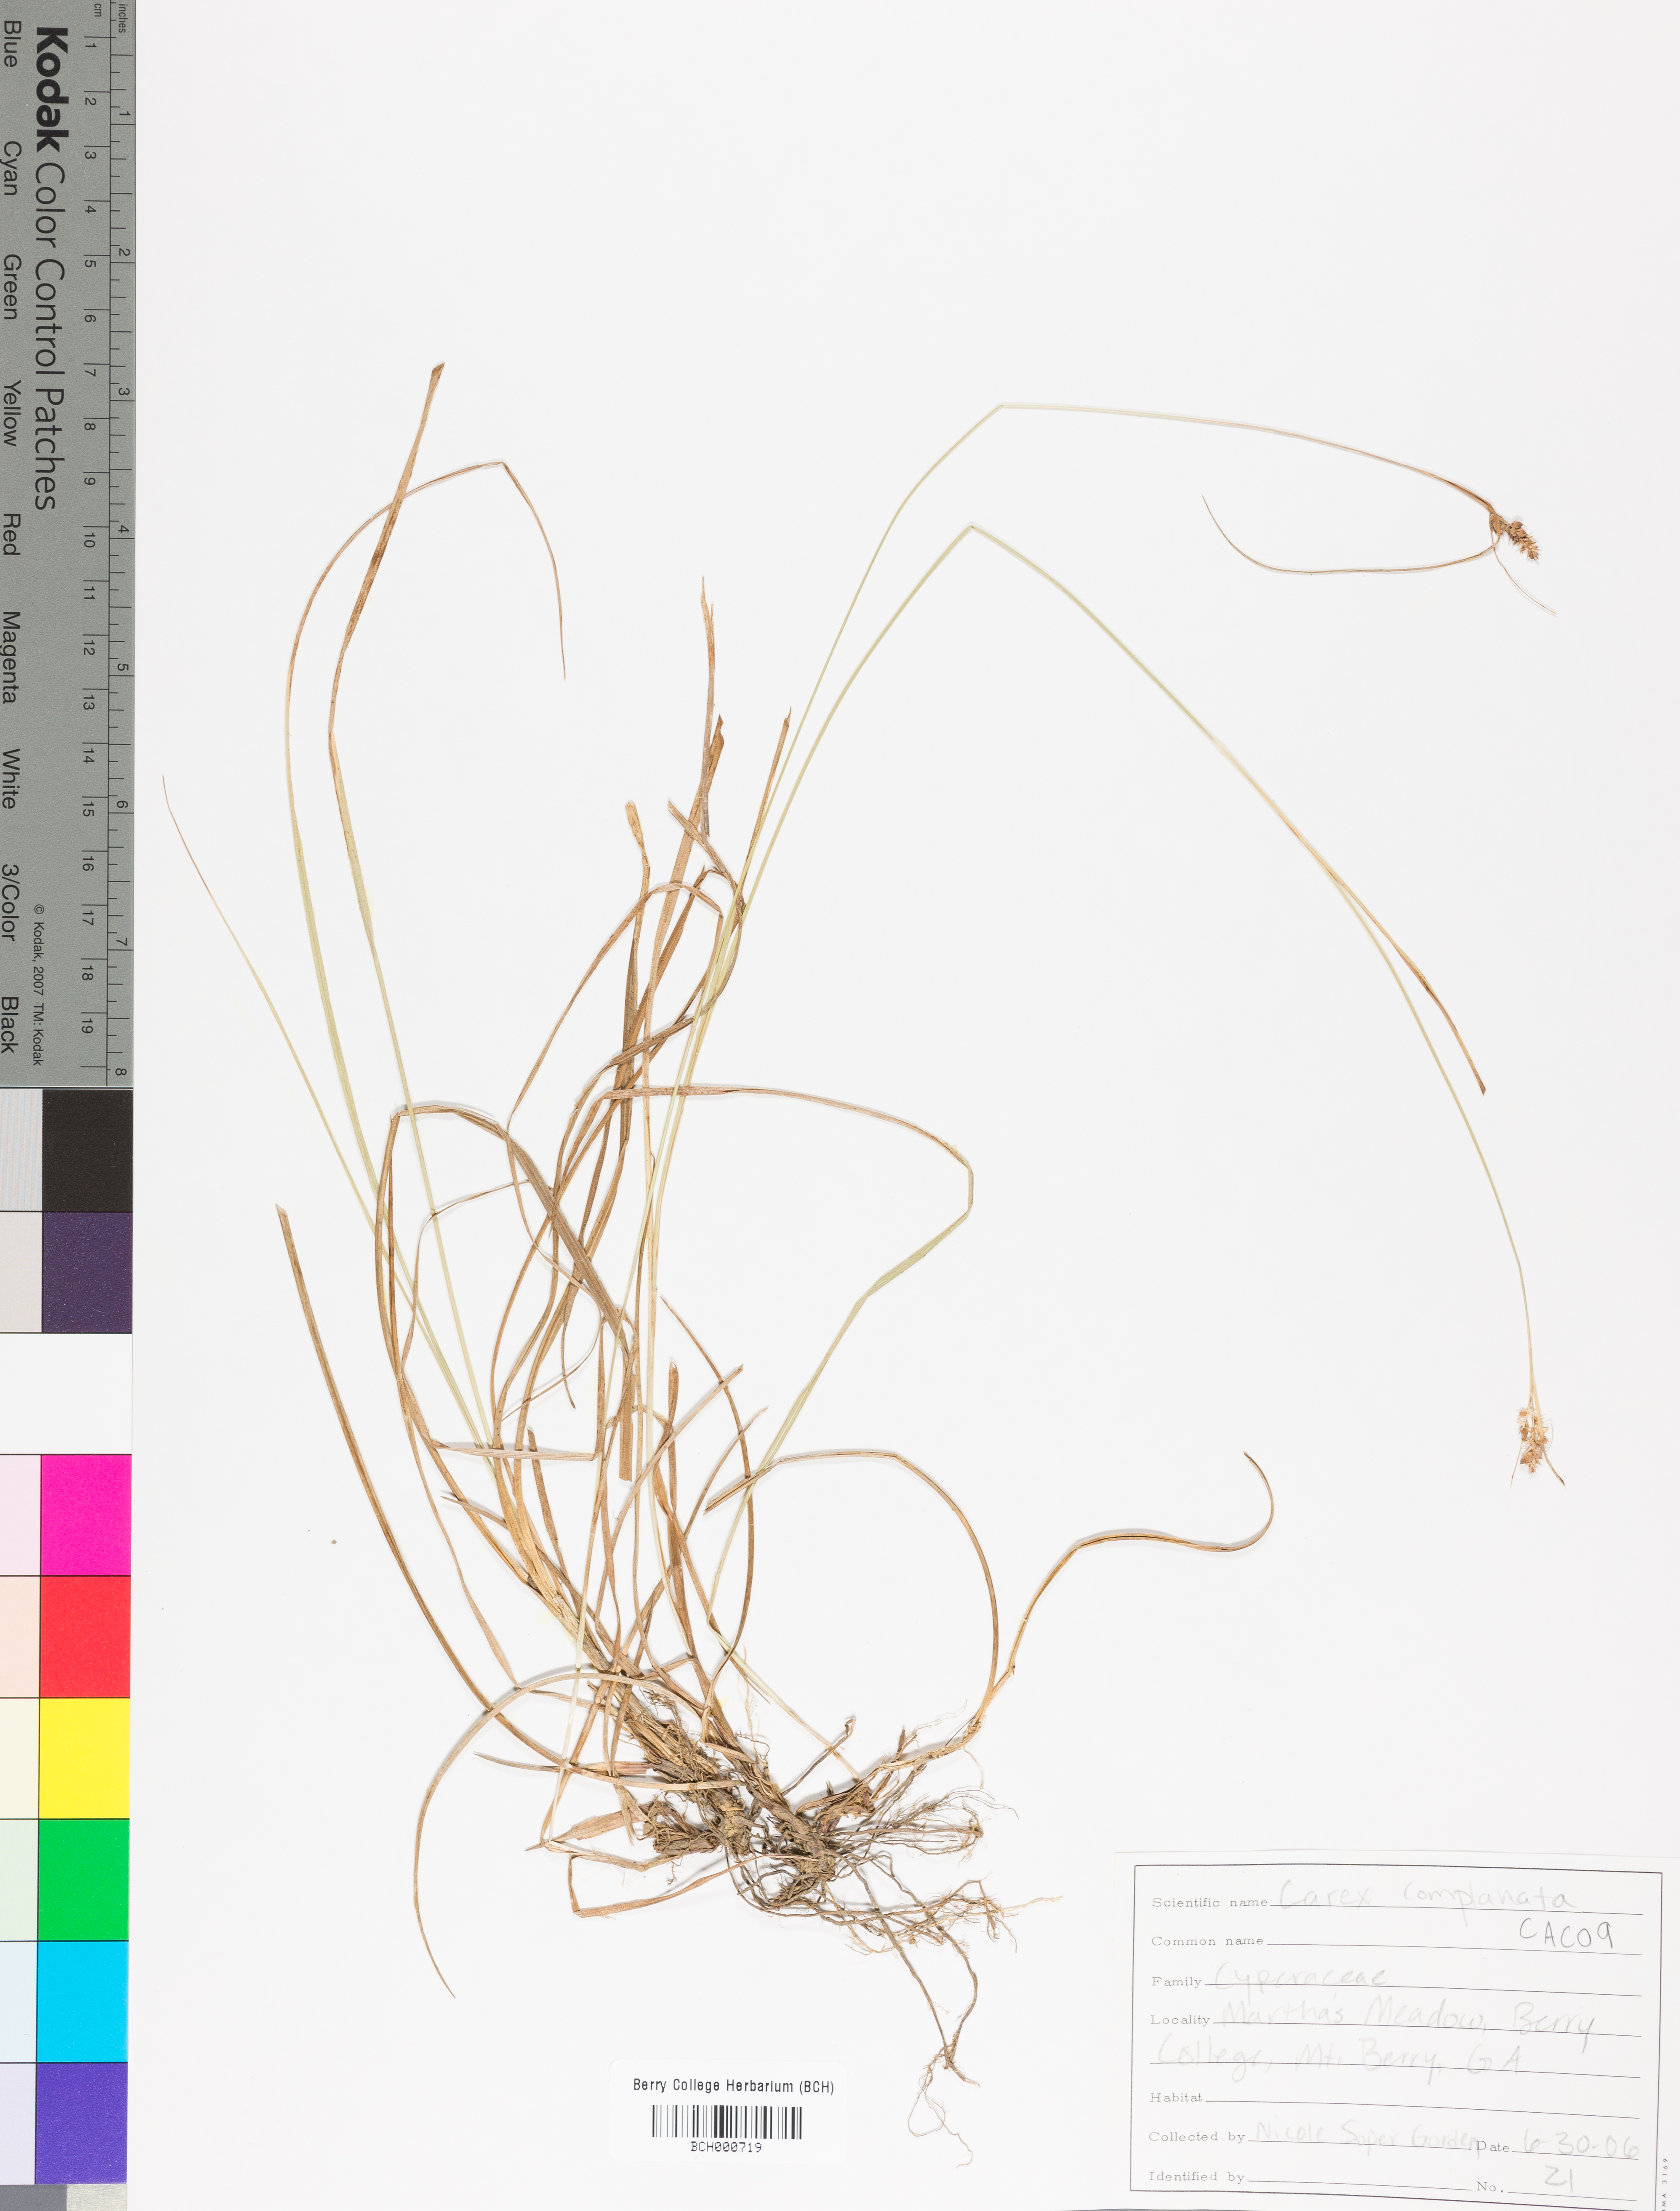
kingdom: Plantae
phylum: Tracheophyta
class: Liliopsida
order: Poales
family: Cyperaceae
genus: Carex
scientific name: Carex complanata
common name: Hirsute sedge
